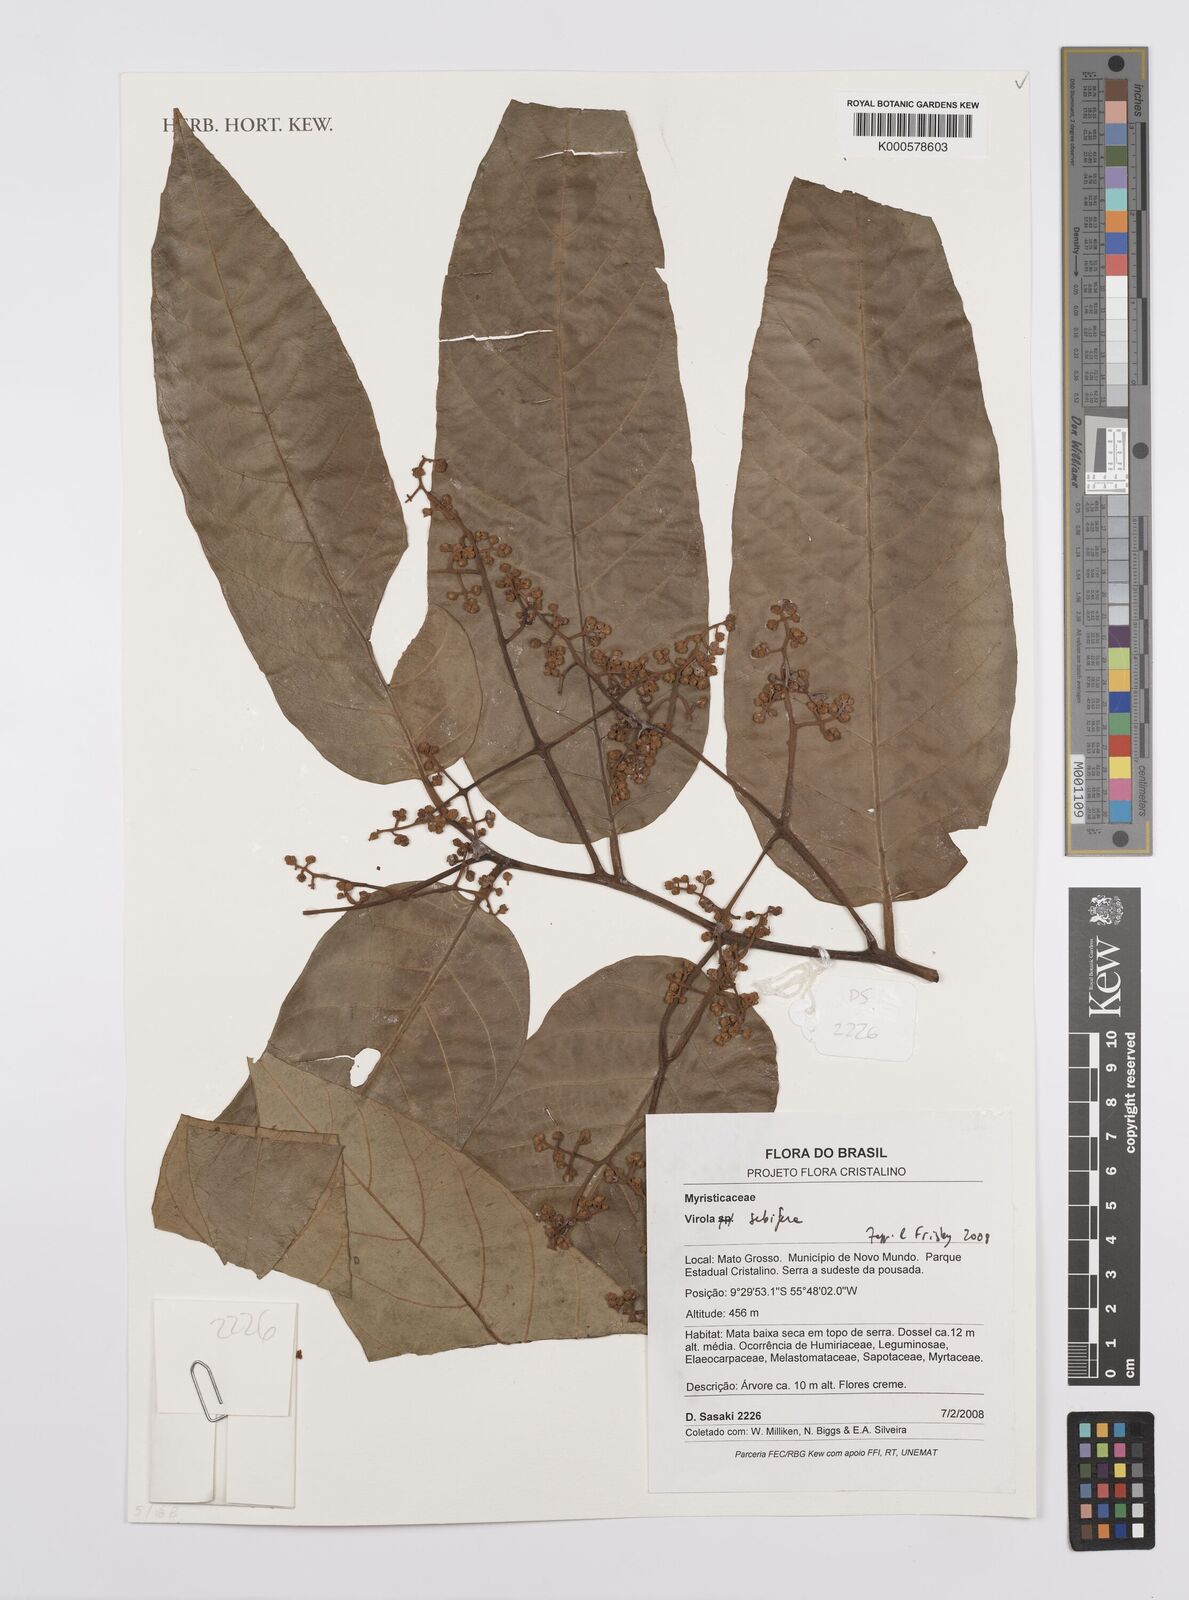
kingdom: Plantae
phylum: Tracheophyta
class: Magnoliopsida
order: Magnoliales
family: Myristicaceae
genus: Virola
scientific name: Virola sebifera
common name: Red ucuuba
